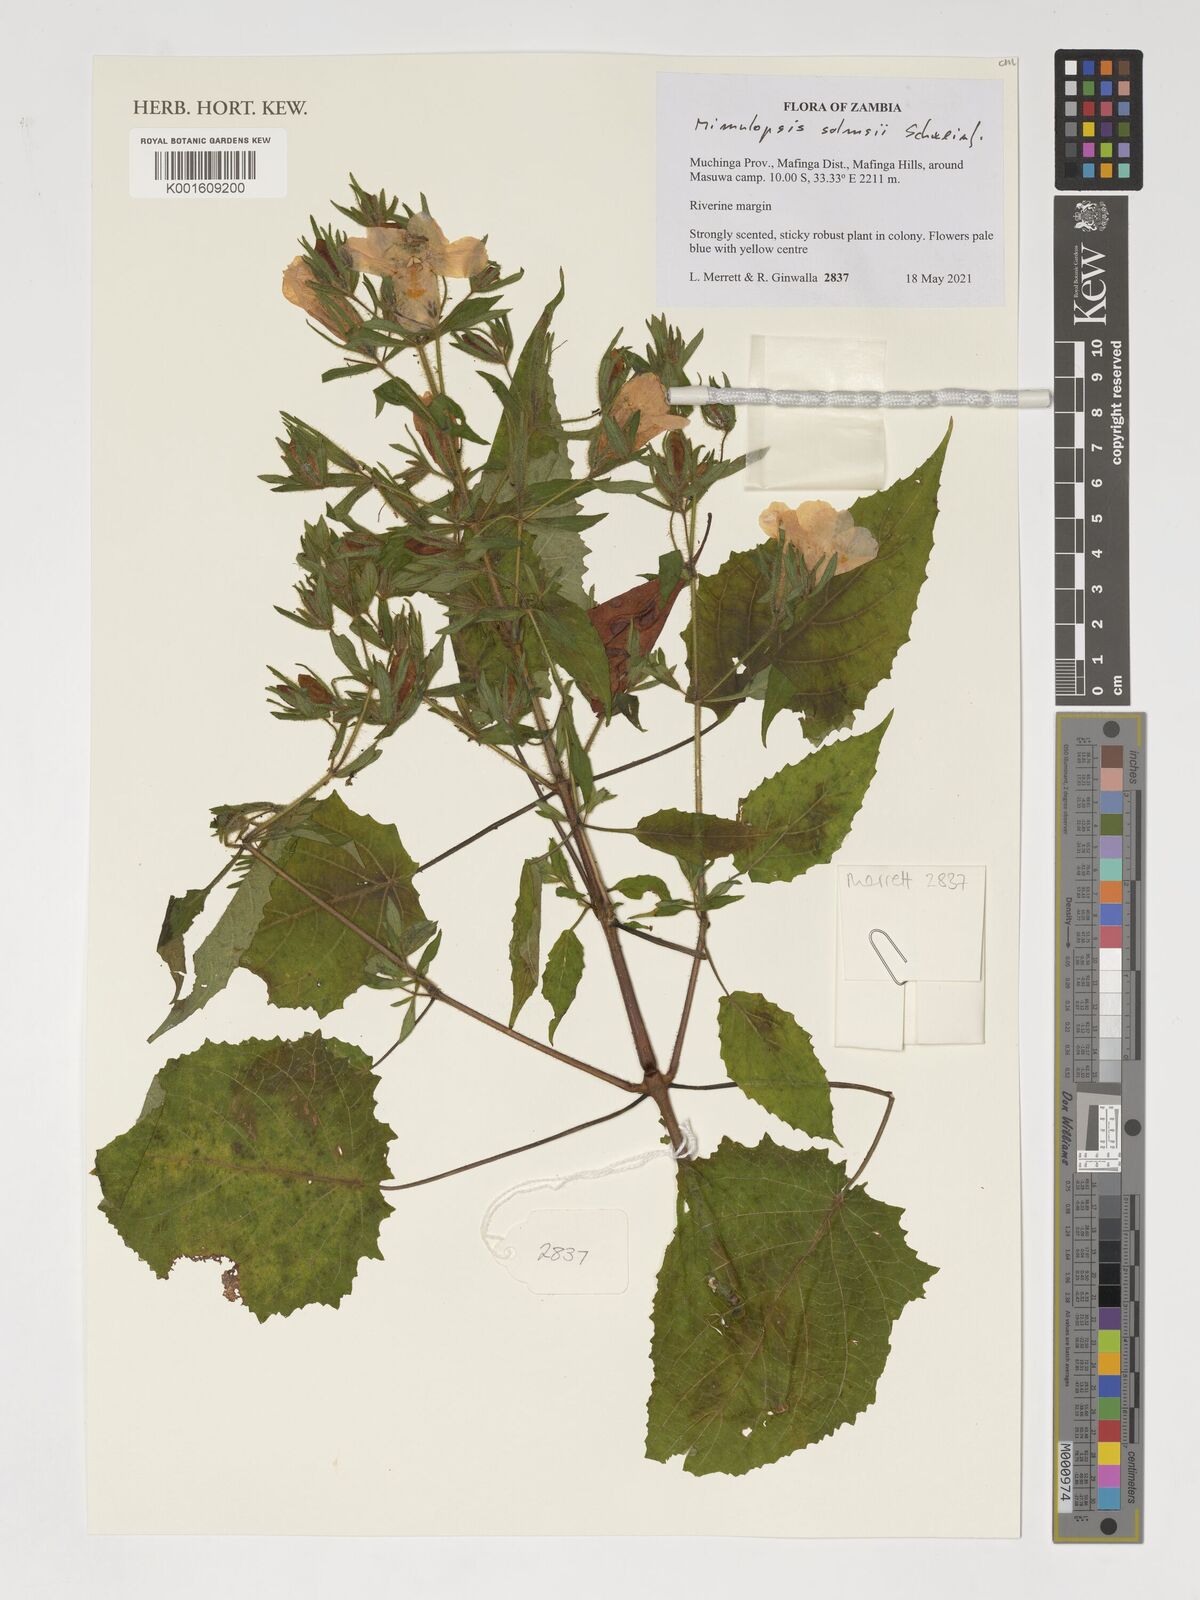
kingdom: Plantae
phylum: Tracheophyta
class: Magnoliopsida
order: Lamiales
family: Acanthaceae
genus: Mimulopsis
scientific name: Mimulopsis solmsii
